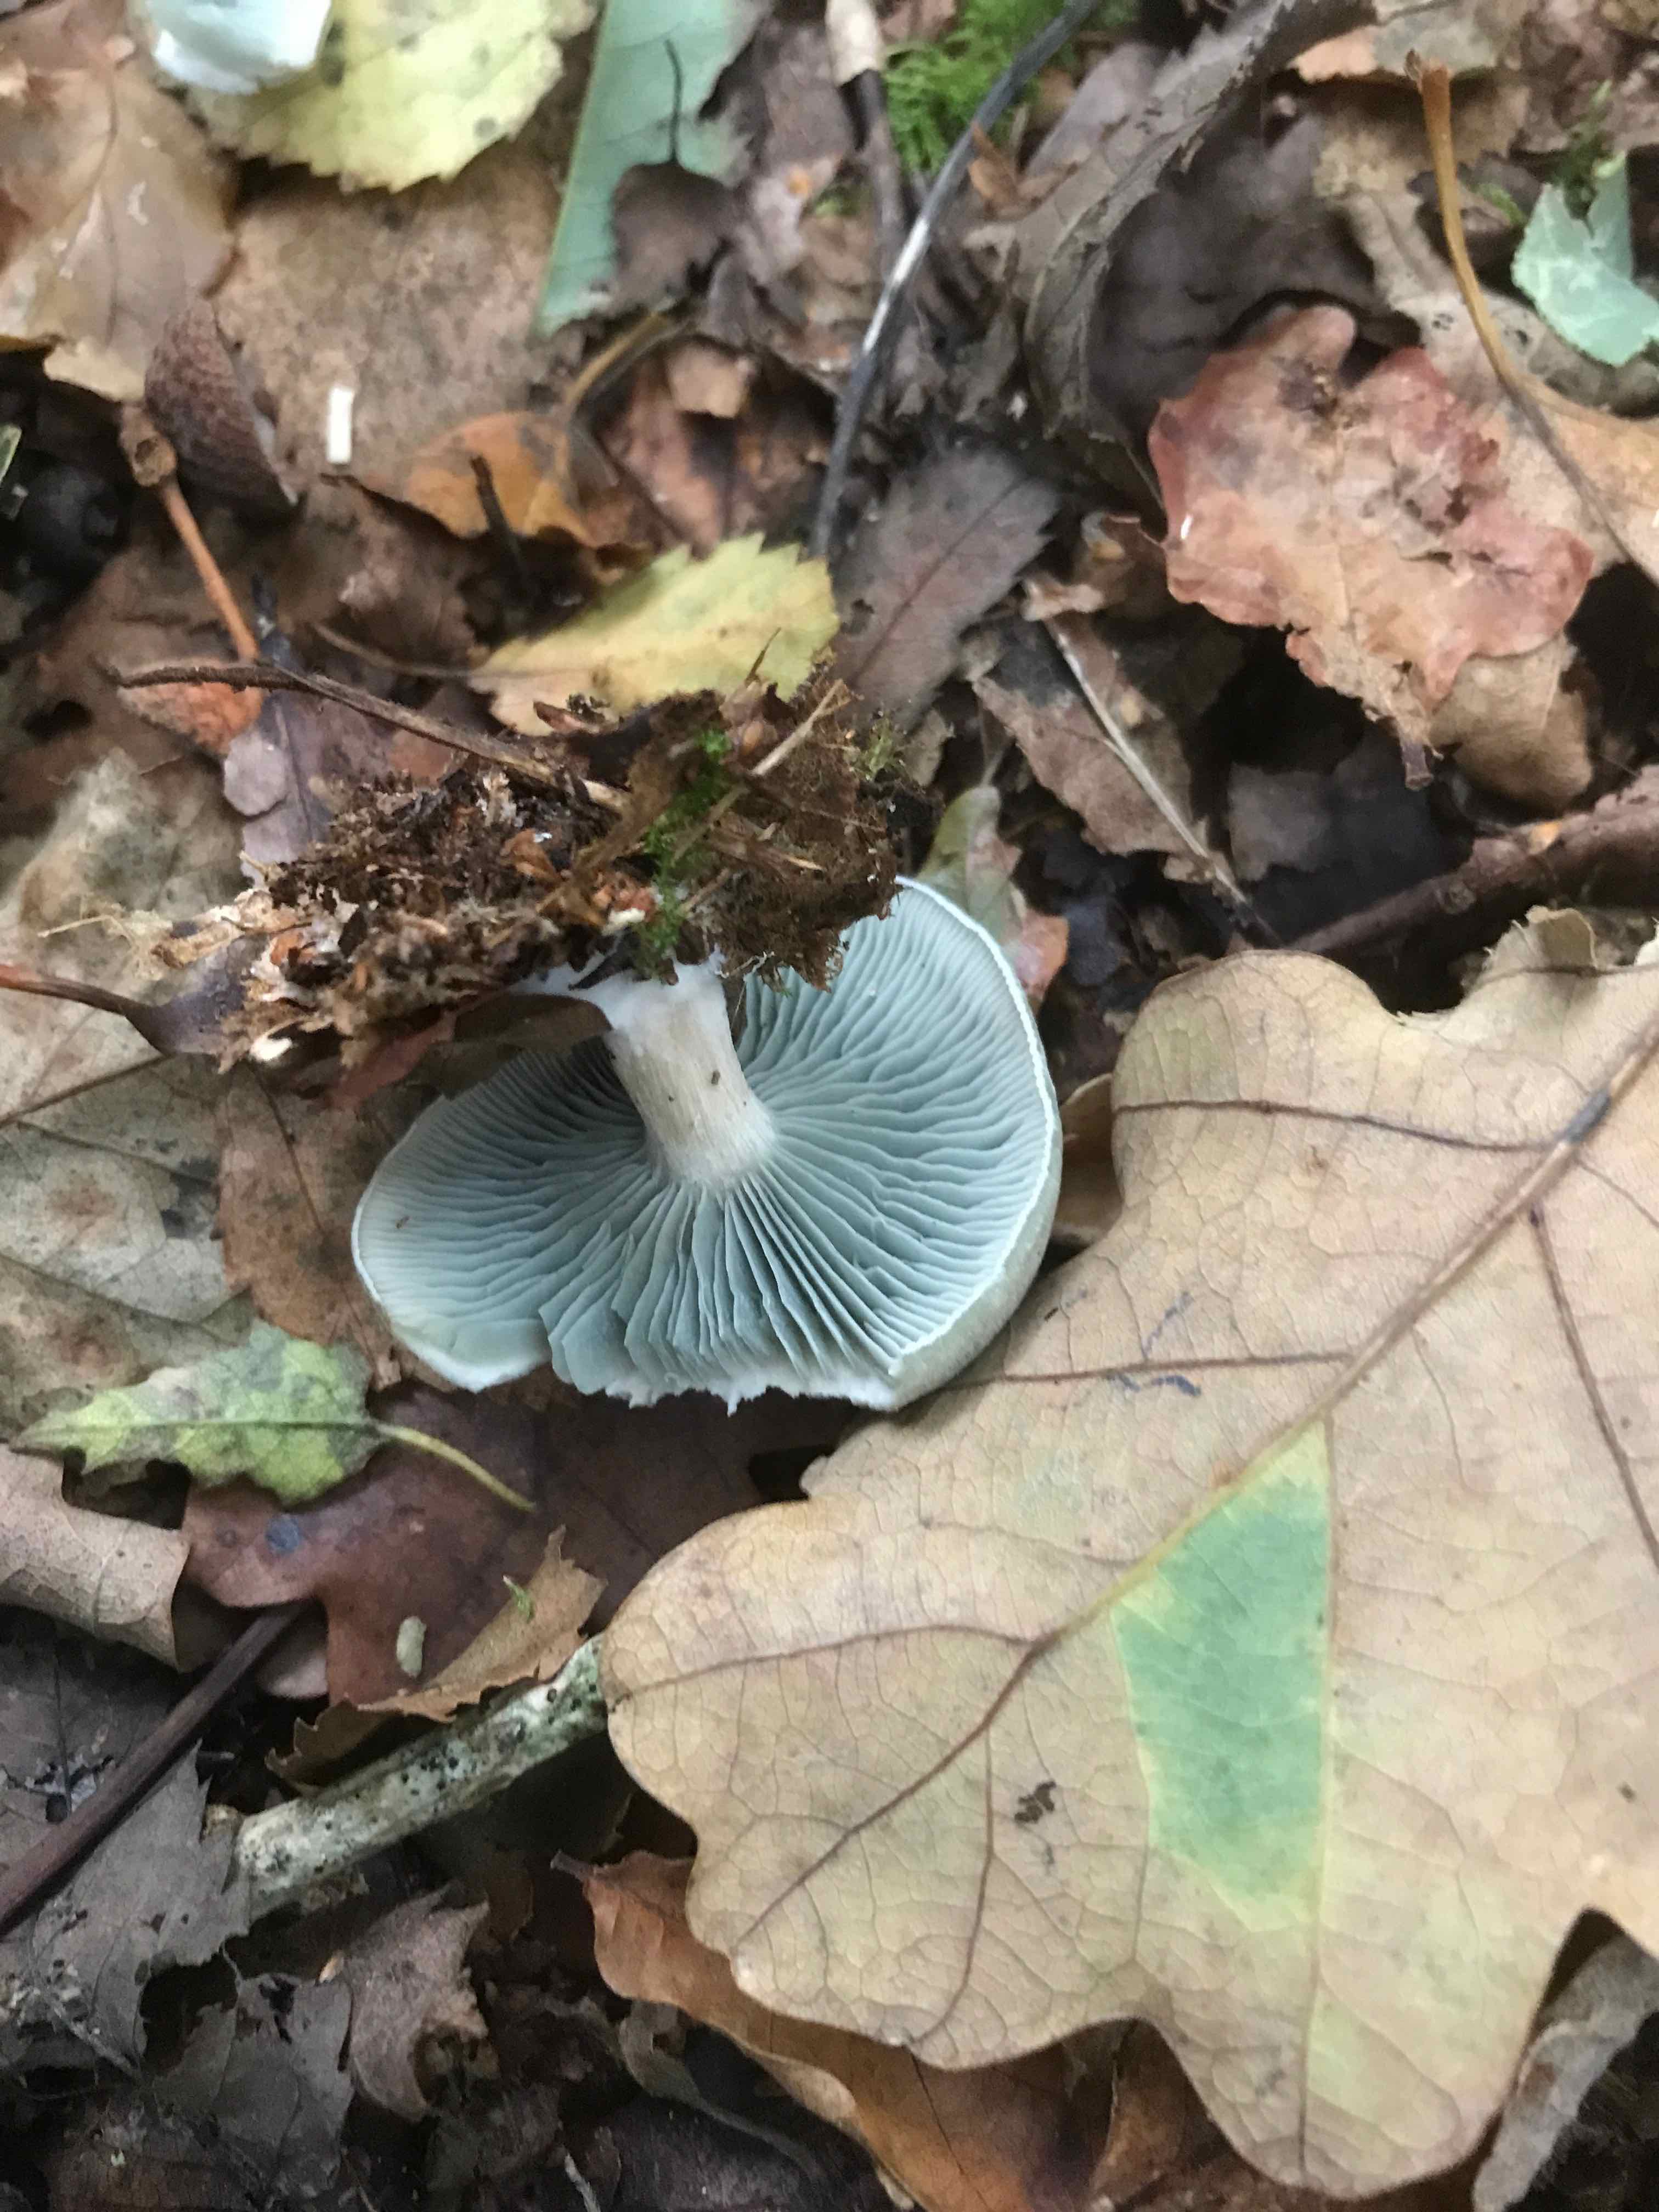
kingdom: Fungi
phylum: Basidiomycota
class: Agaricomycetes
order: Agaricales
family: Tricholomataceae
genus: Clitocybe
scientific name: Clitocybe odora
